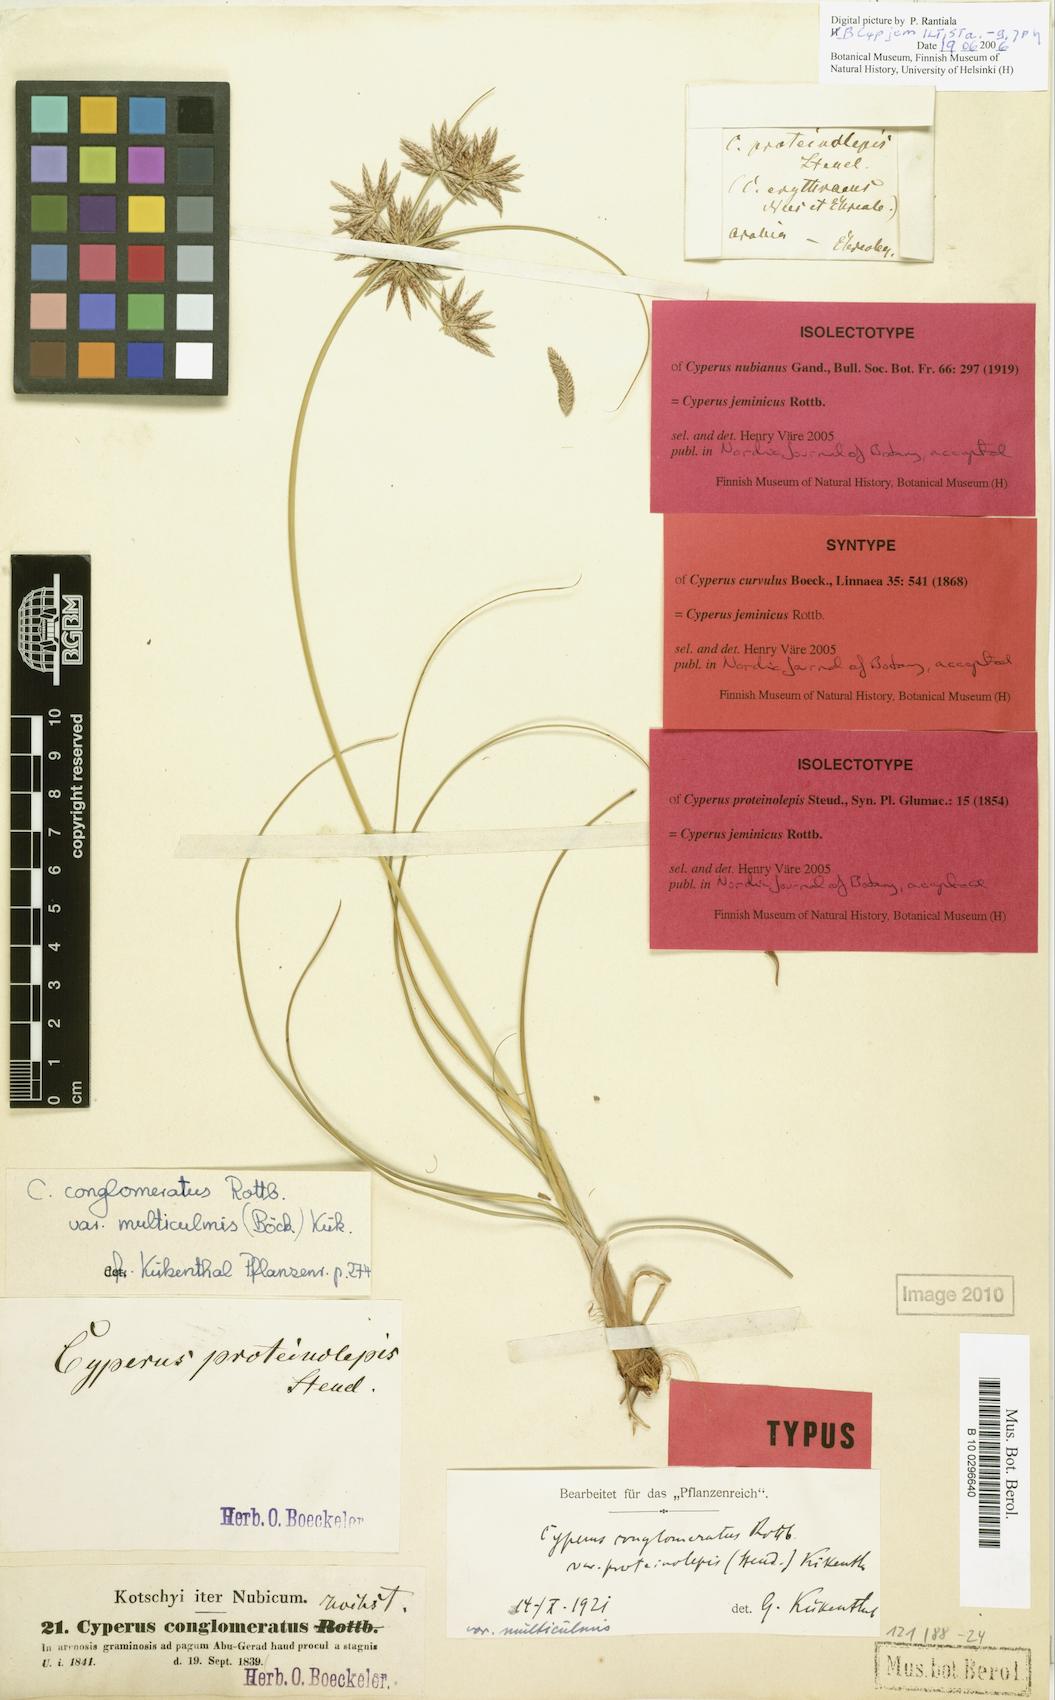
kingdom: Plantae
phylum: Tracheophyta
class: Liliopsida
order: Poales
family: Cyperaceae
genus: Cyperus
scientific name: Cyperus jeminicus
